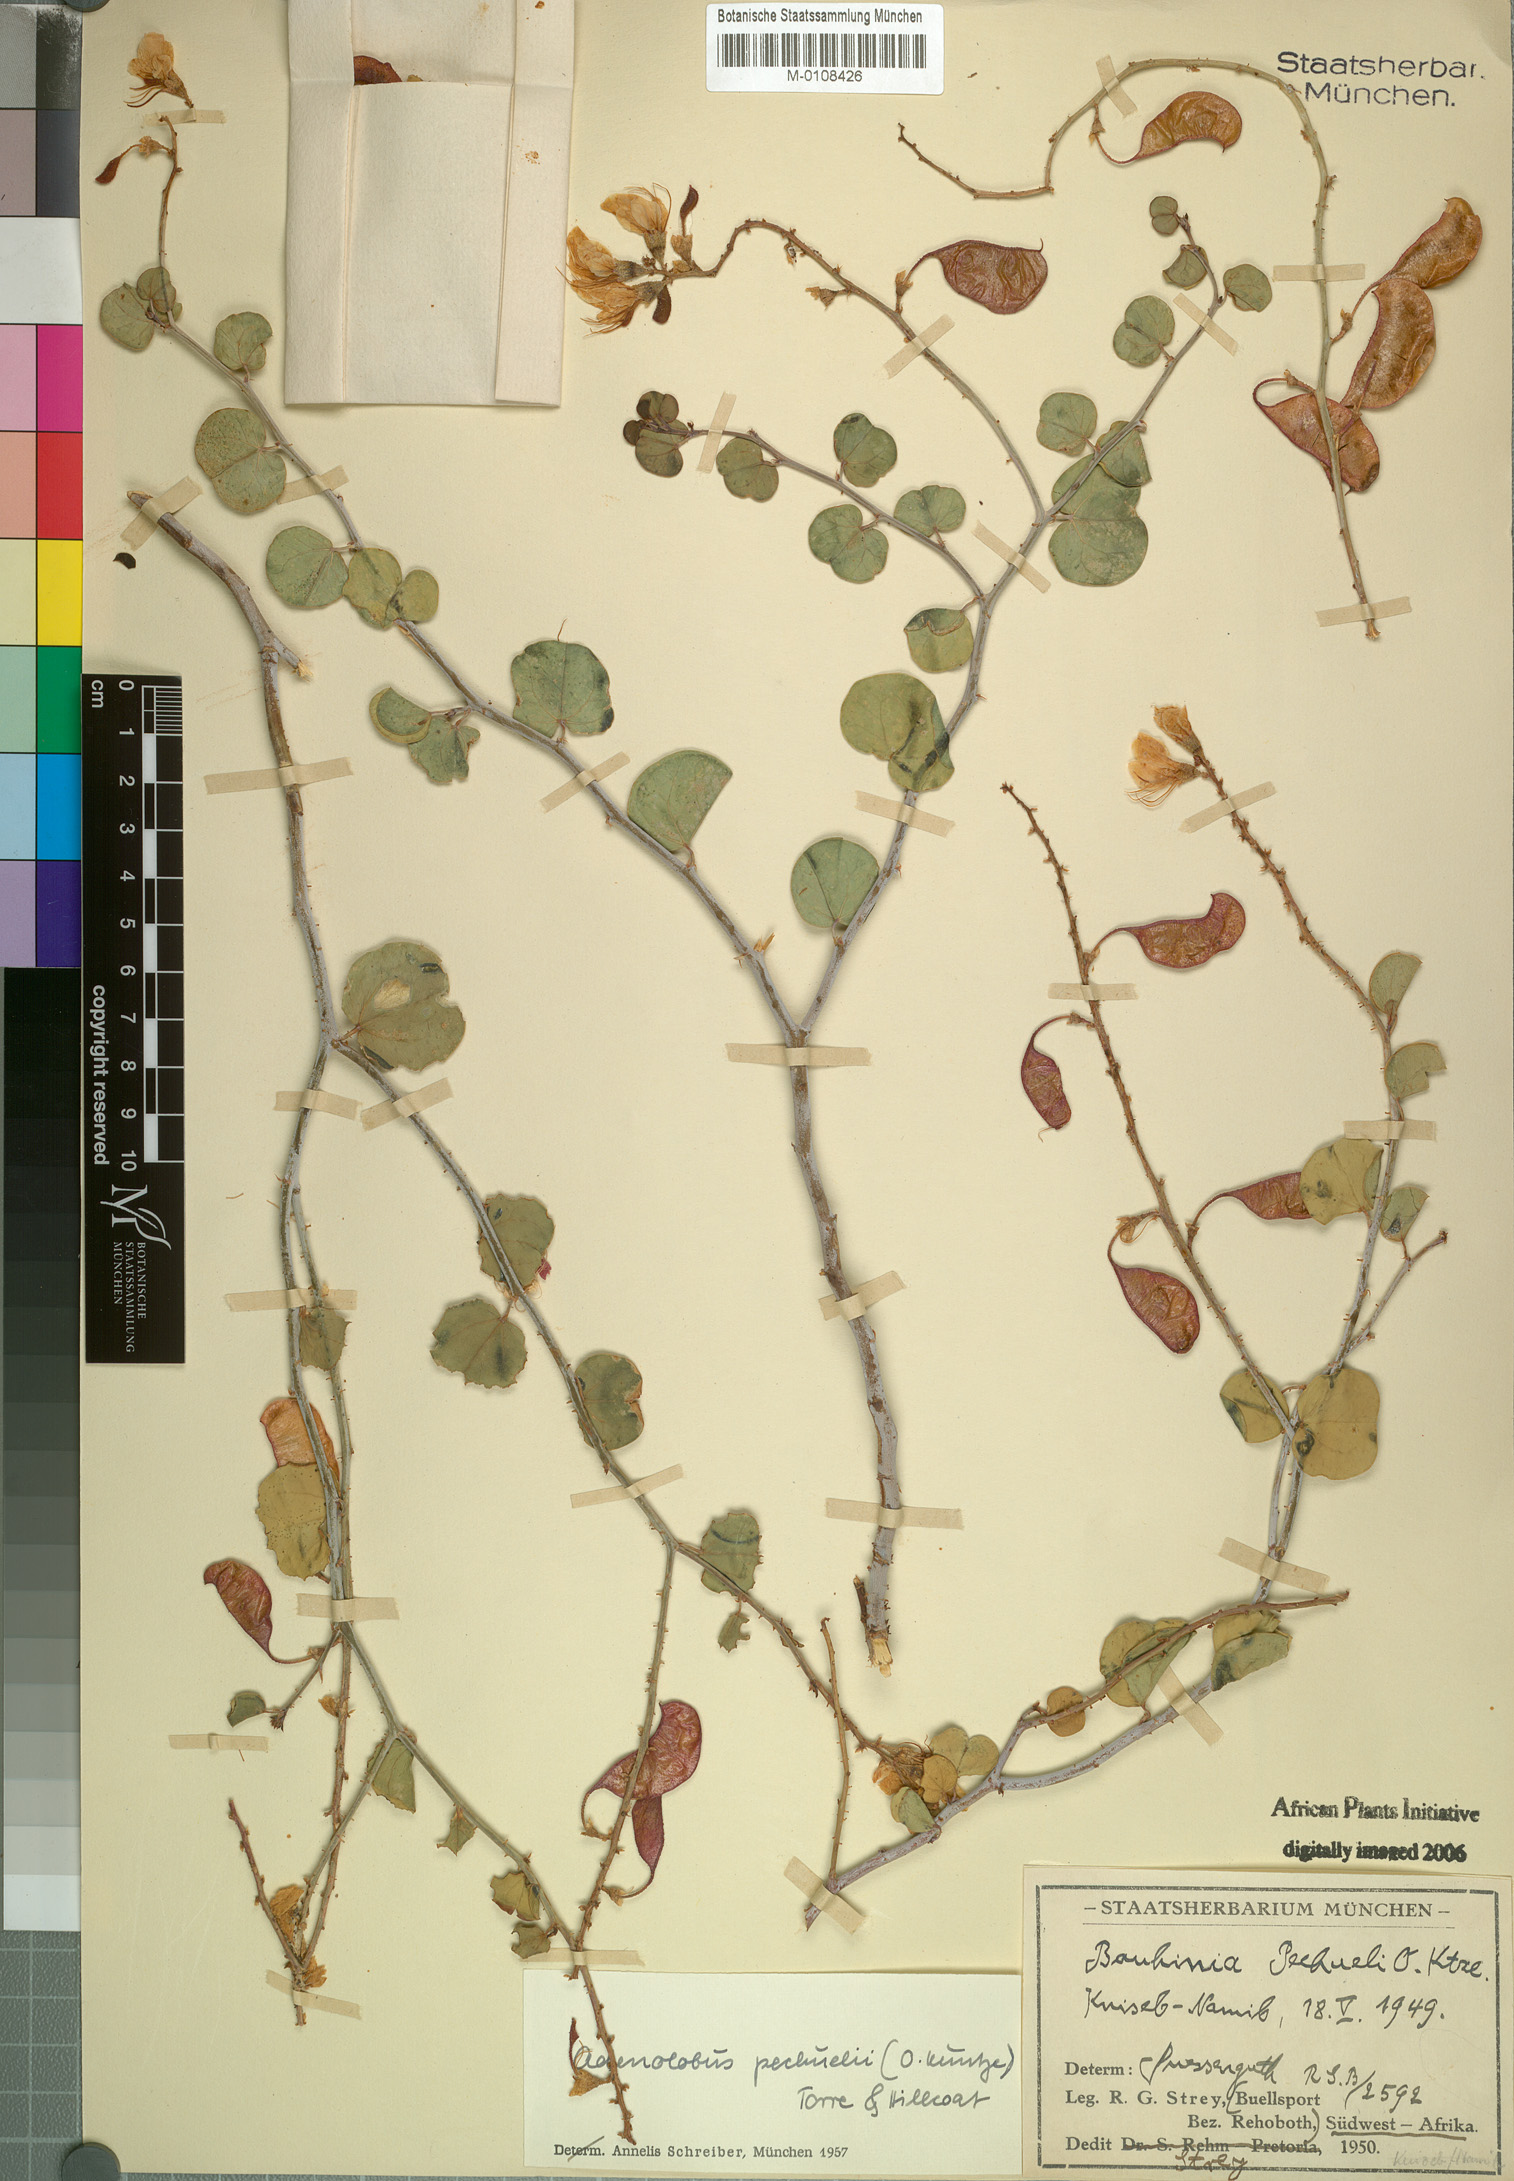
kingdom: Plantae
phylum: Tracheophyta
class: Magnoliopsida
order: Fabales
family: Fabaceae
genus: Adenolobus
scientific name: Adenolobus pechuelii
